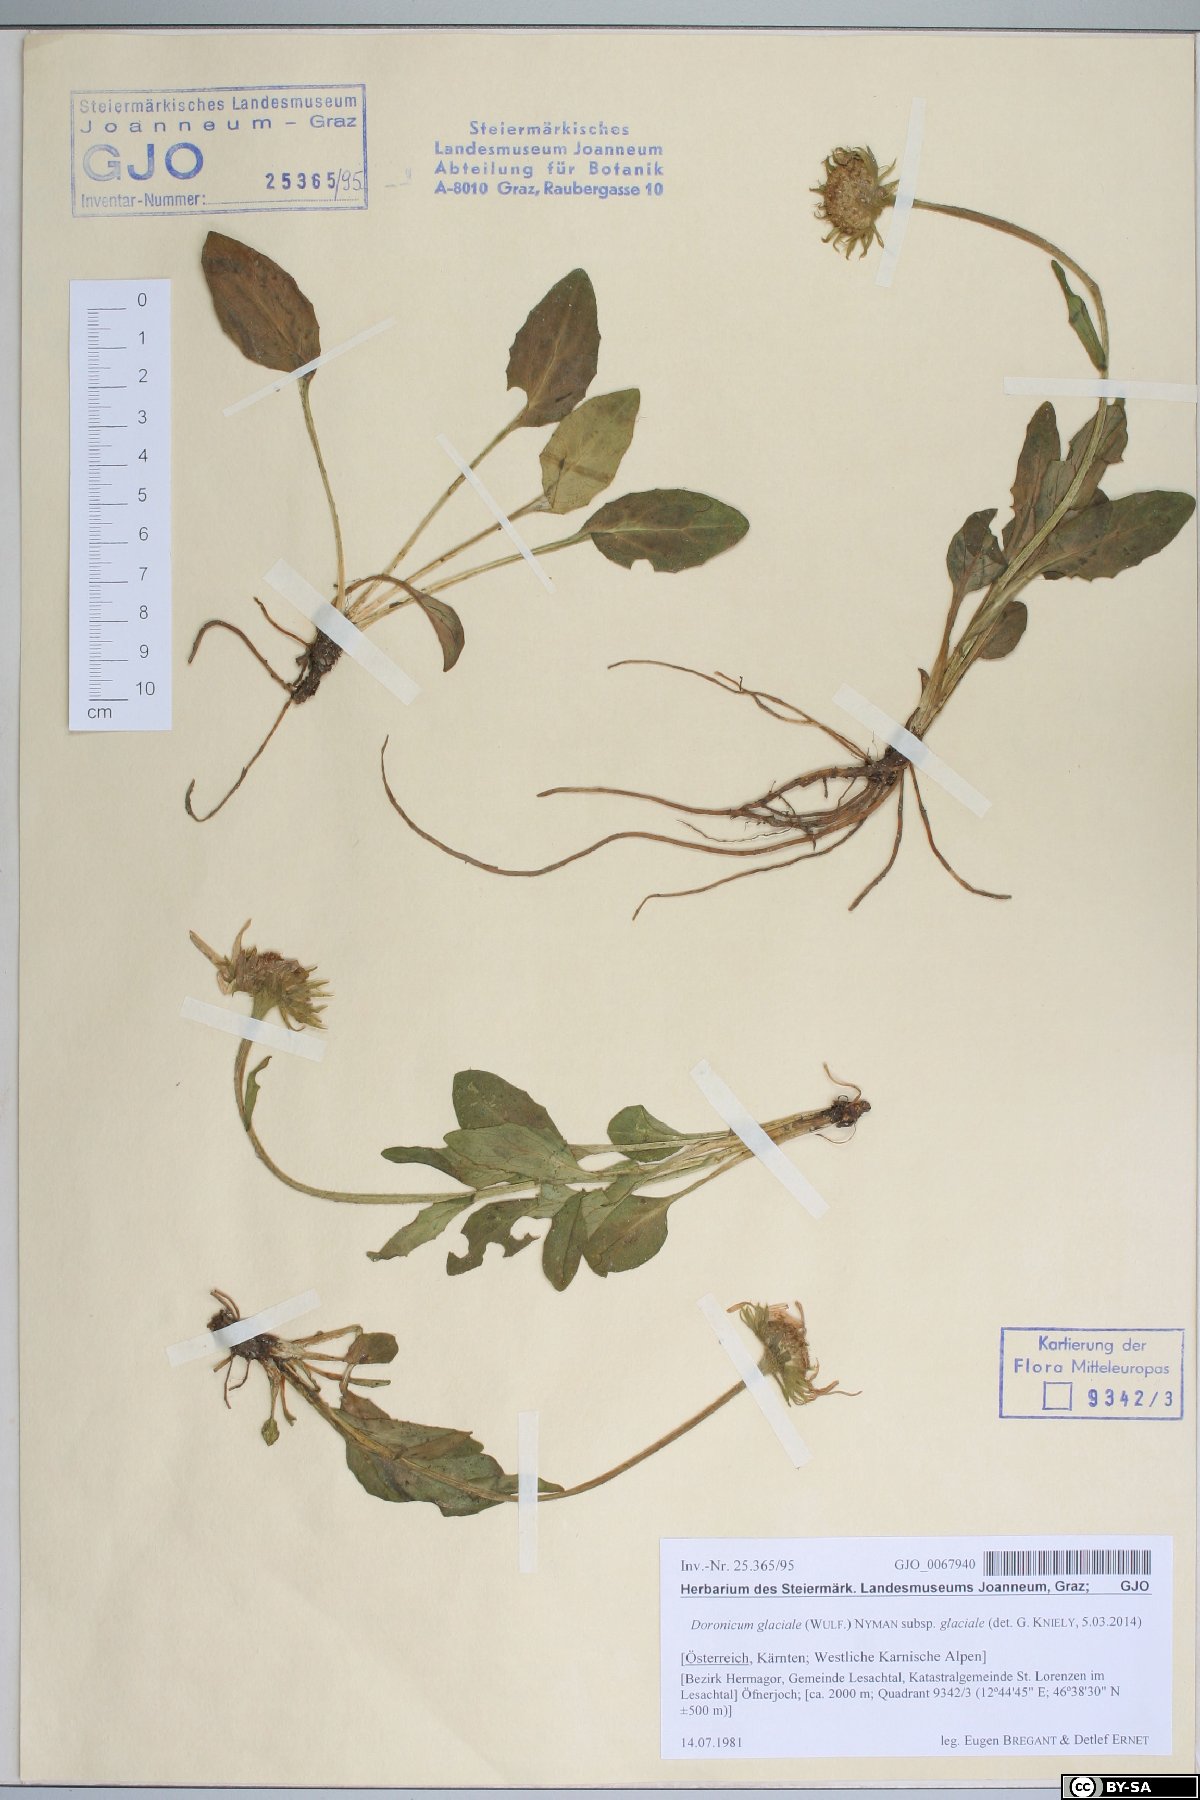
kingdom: Plantae
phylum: Tracheophyta
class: Magnoliopsida
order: Asterales
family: Asteraceae
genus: Doronicum
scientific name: Doronicum glaciale
